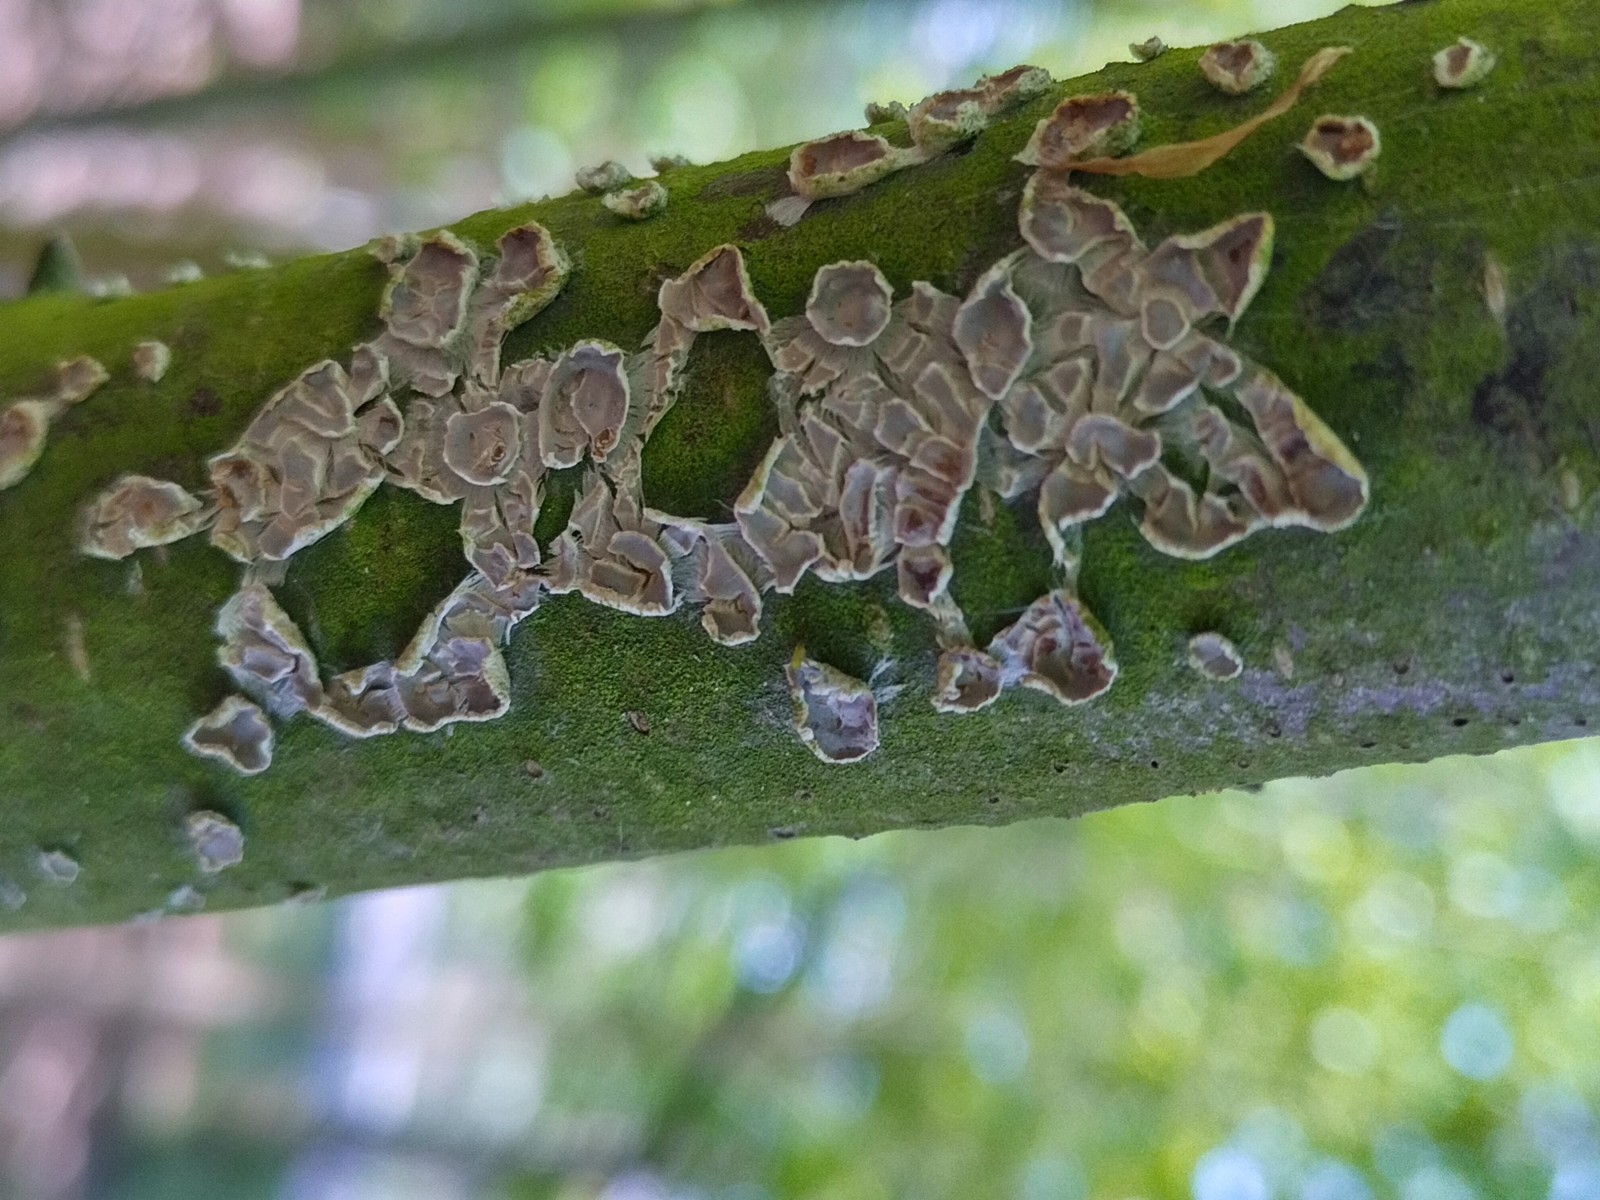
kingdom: Fungi
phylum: Basidiomycota
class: Agaricomycetes
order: Agaricales
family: Physalacriaceae
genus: Cylindrobasidium
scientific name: Cylindrobasidium evolvens
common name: sprækkehinde
